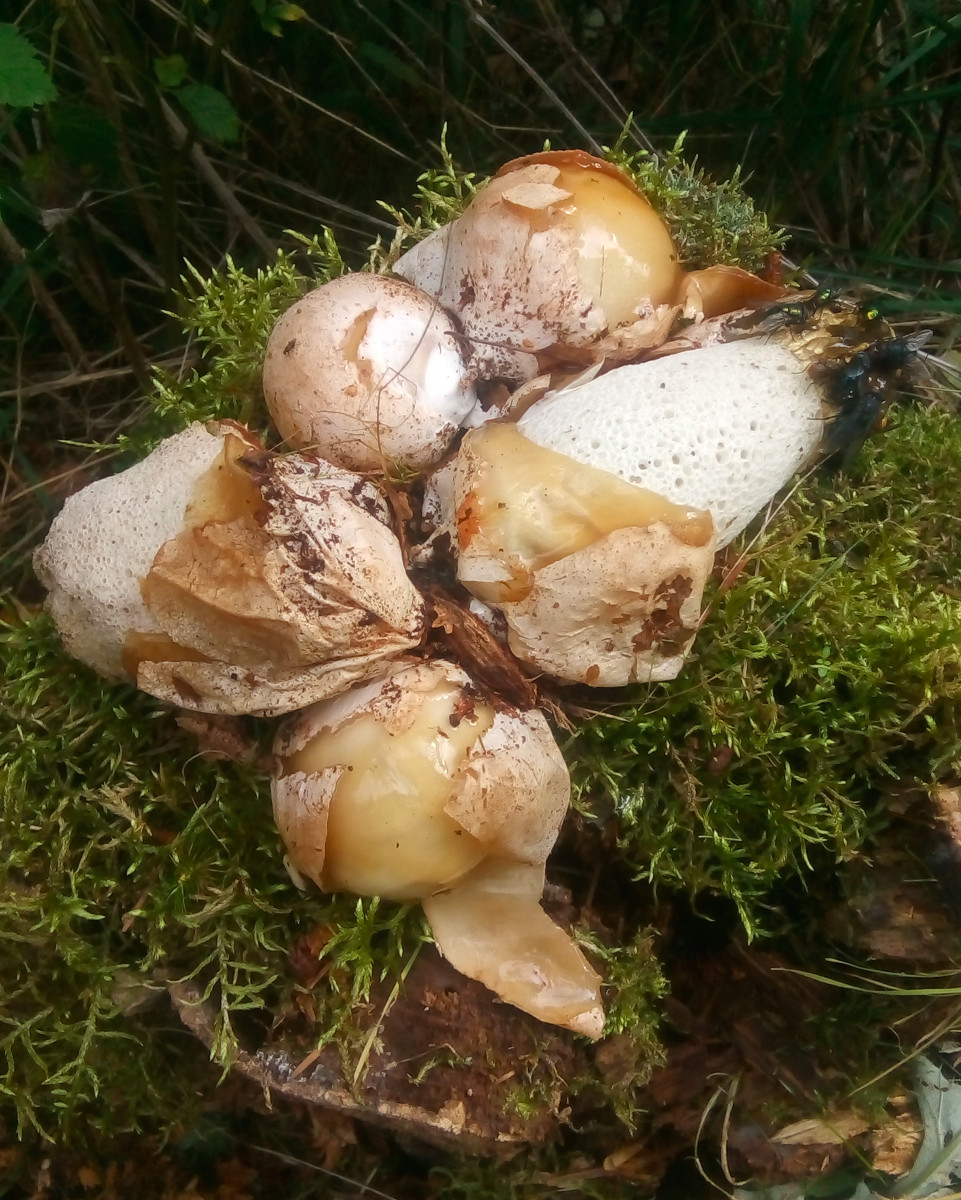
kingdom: Fungi
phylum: Basidiomycota
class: Agaricomycetes
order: Phallales
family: Phallaceae
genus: Phallus
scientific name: Phallus impudicus
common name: almindelig stinksvamp
